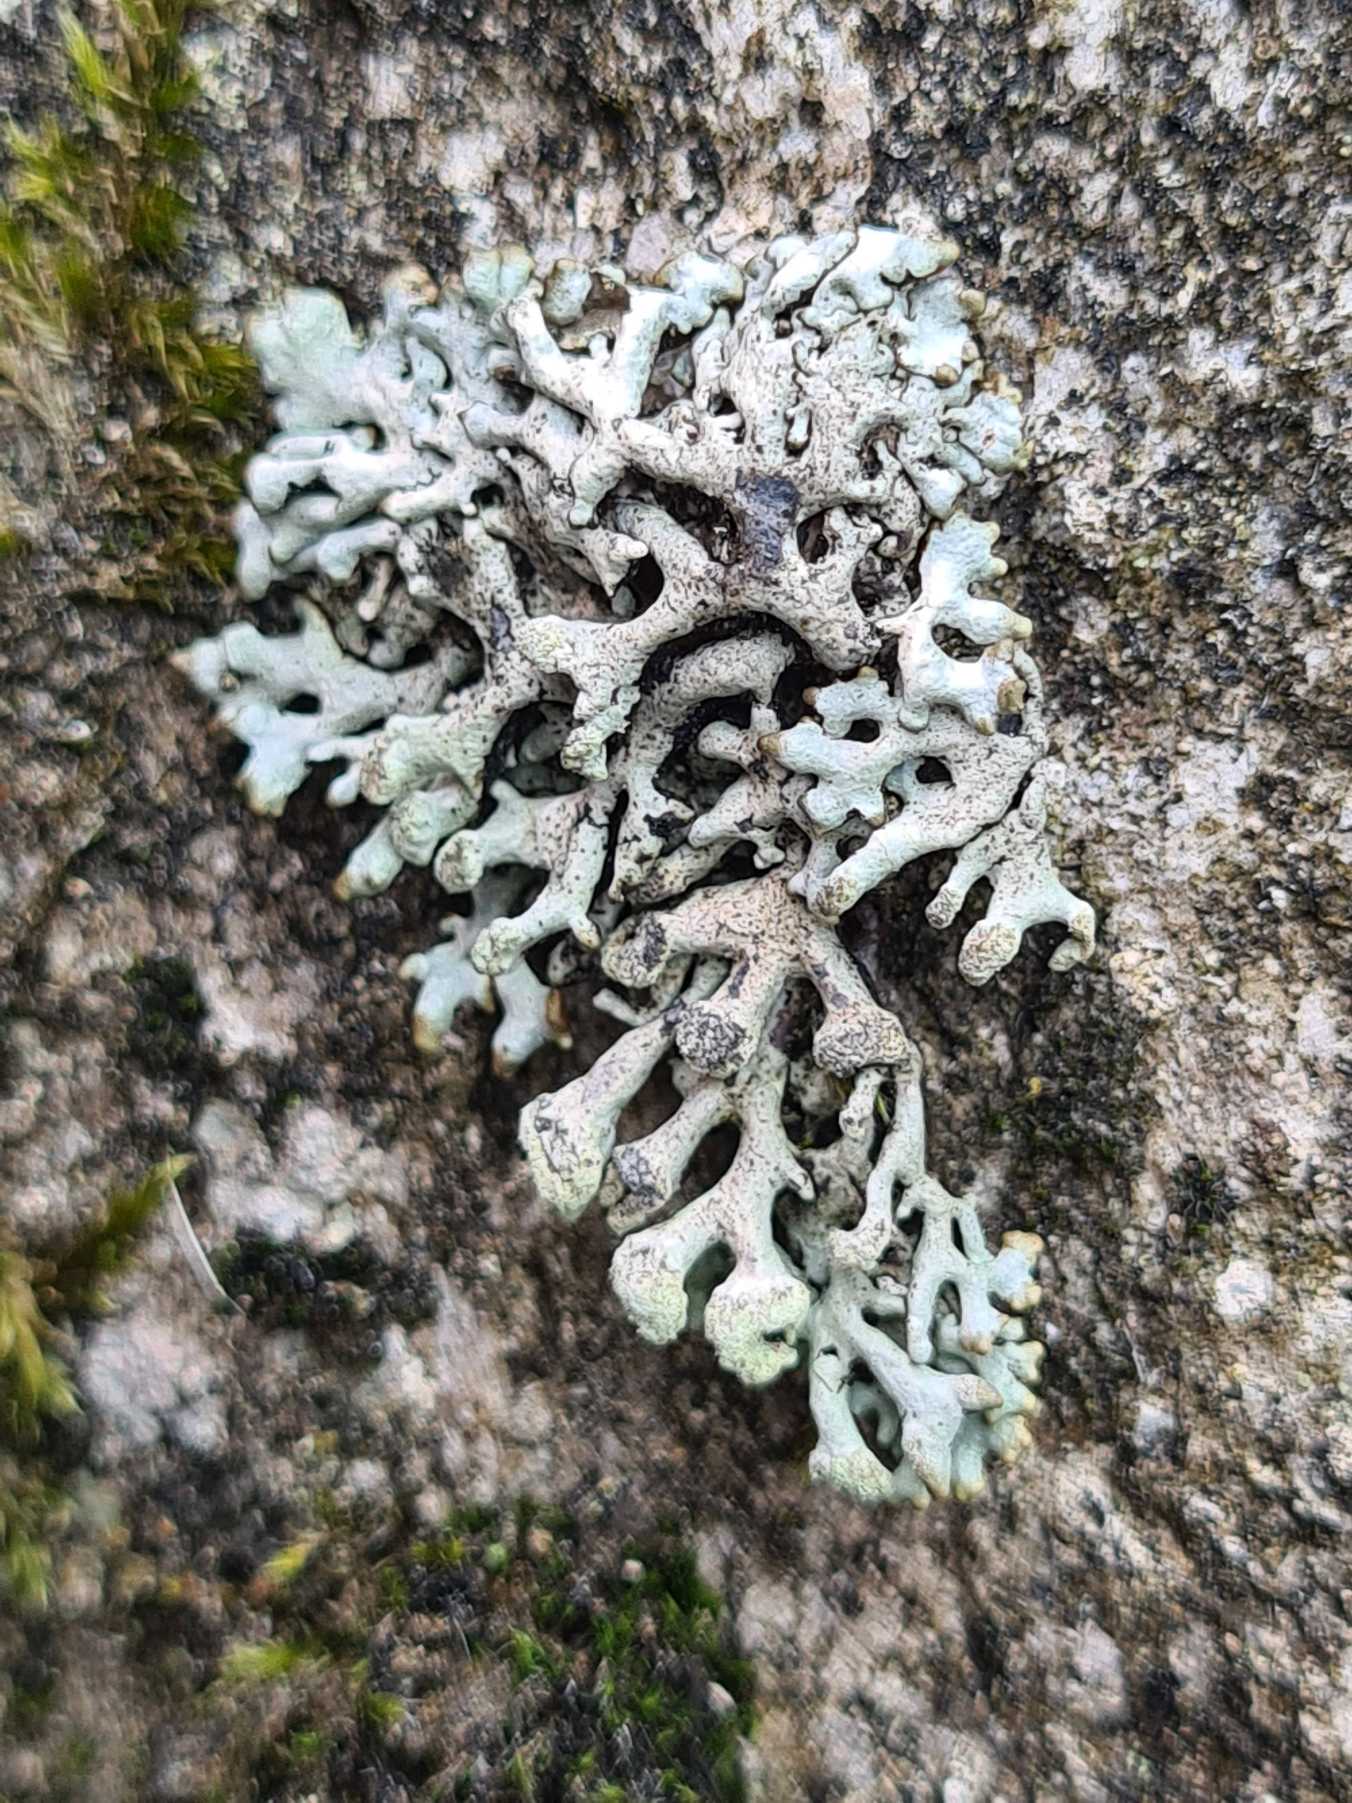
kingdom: Fungi
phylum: Ascomycota
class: Lecanoromycetes
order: Lecanorales
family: Parmeliaceae
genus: Hypogymnia
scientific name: Hypogymnia tubulosa
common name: Finger-kvistlav
